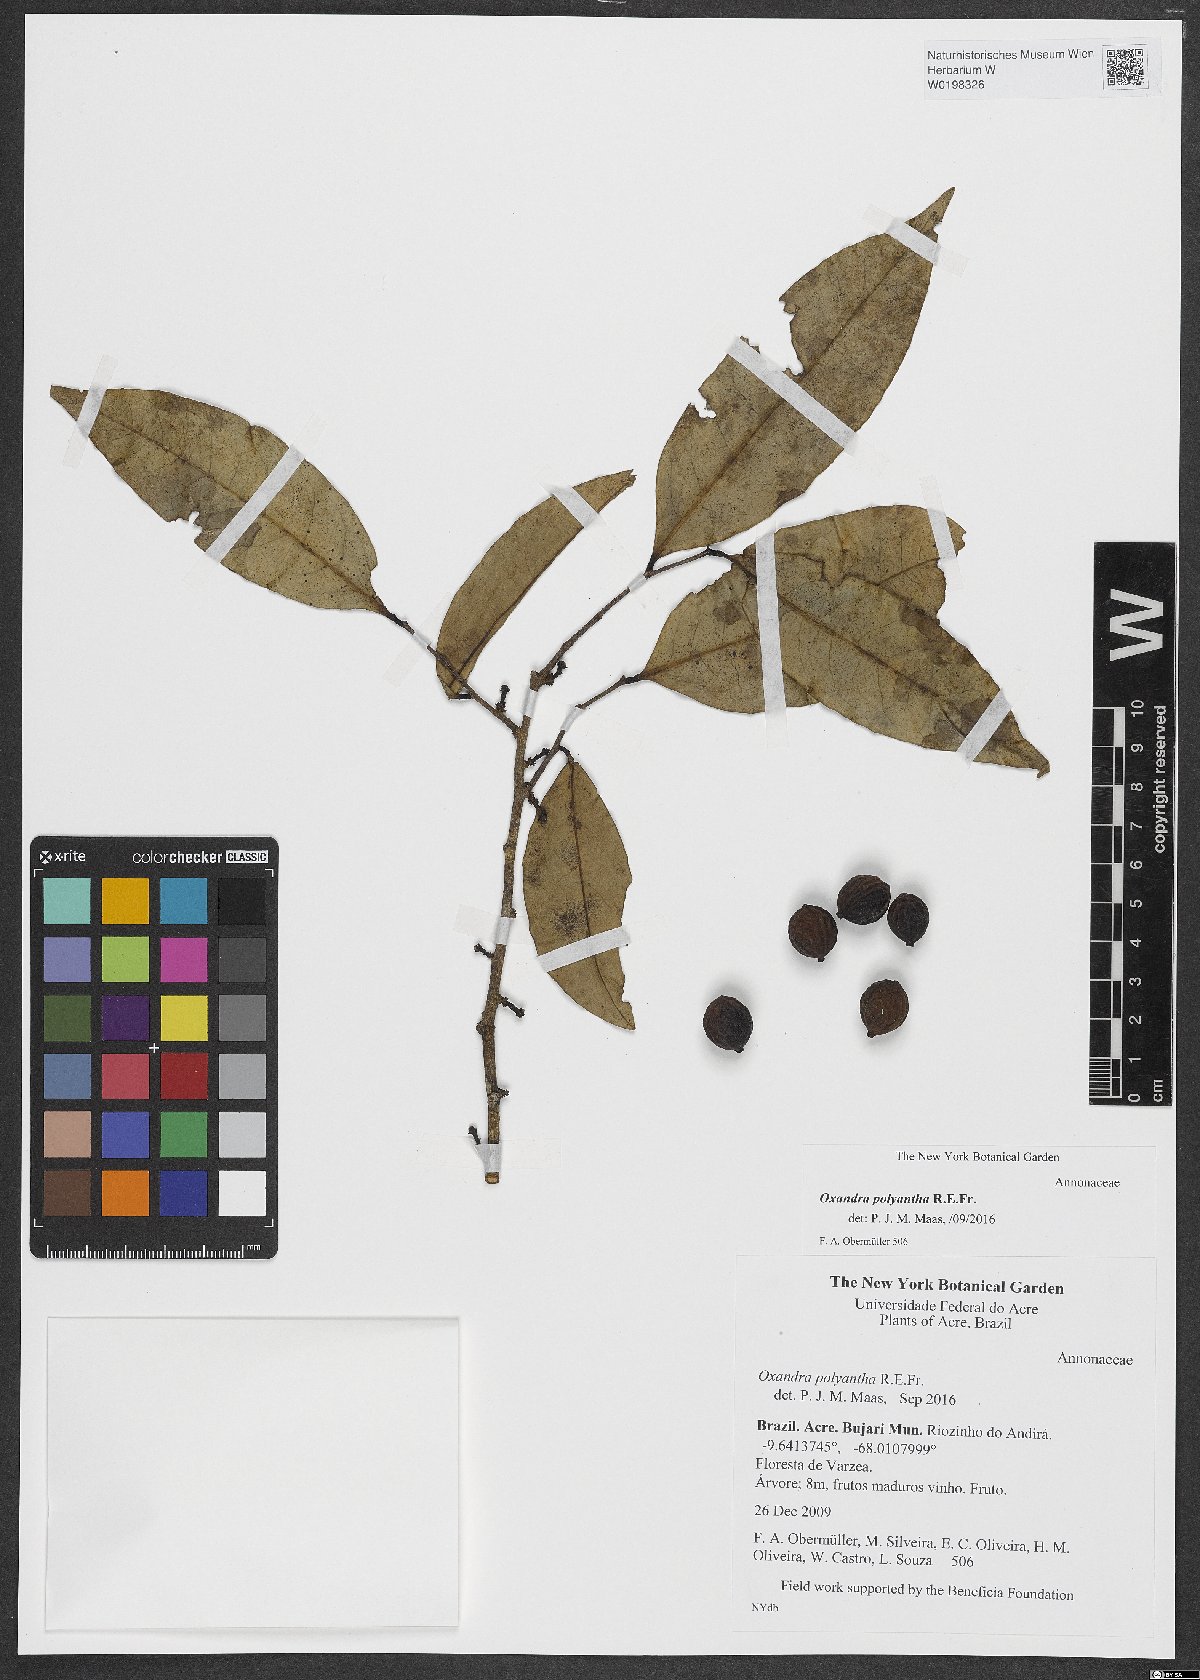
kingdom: Plantae
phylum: Tracheophyta
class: Magnoliopsida
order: Magnoliales
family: Annonaceae
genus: Oxandra
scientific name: Oxandra polyantha
